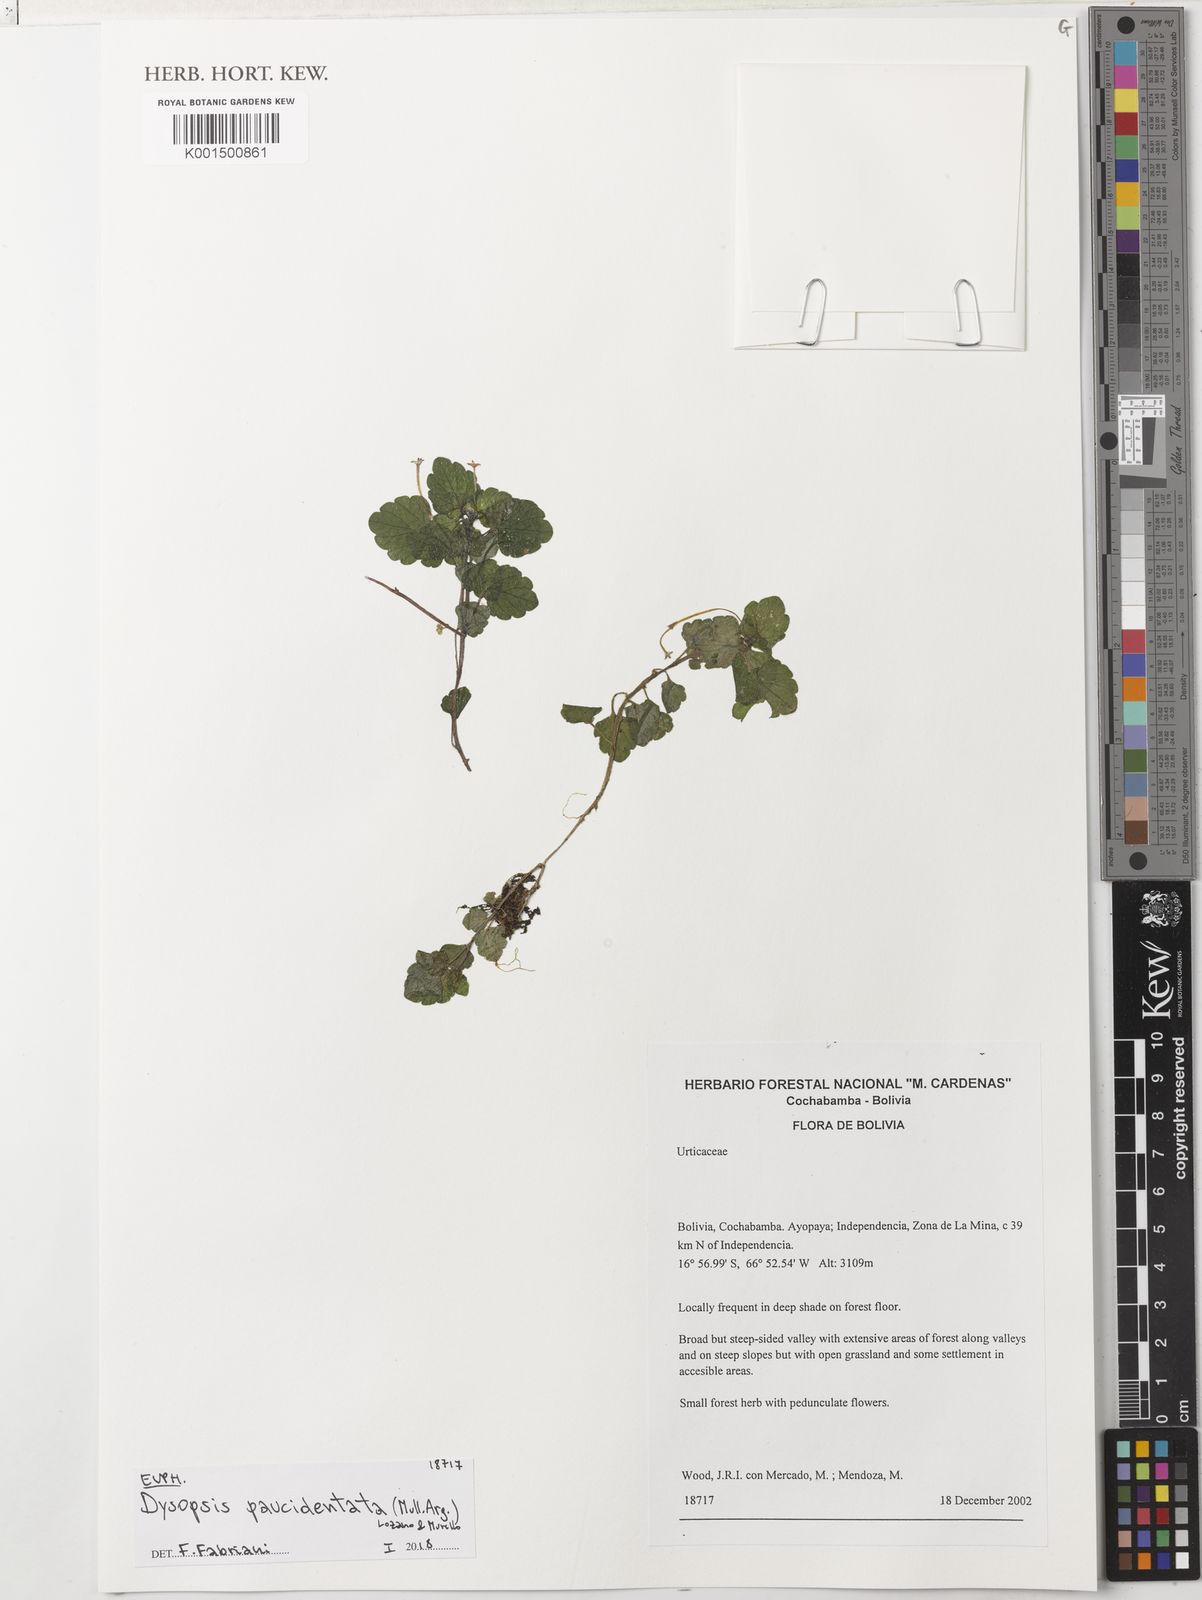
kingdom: Plantae
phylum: Tracheophyta
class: Magnoliopsida
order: Malpighiales
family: Euphorbiaceae
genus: Dysopsis
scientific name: Dysopsis paucidentata
